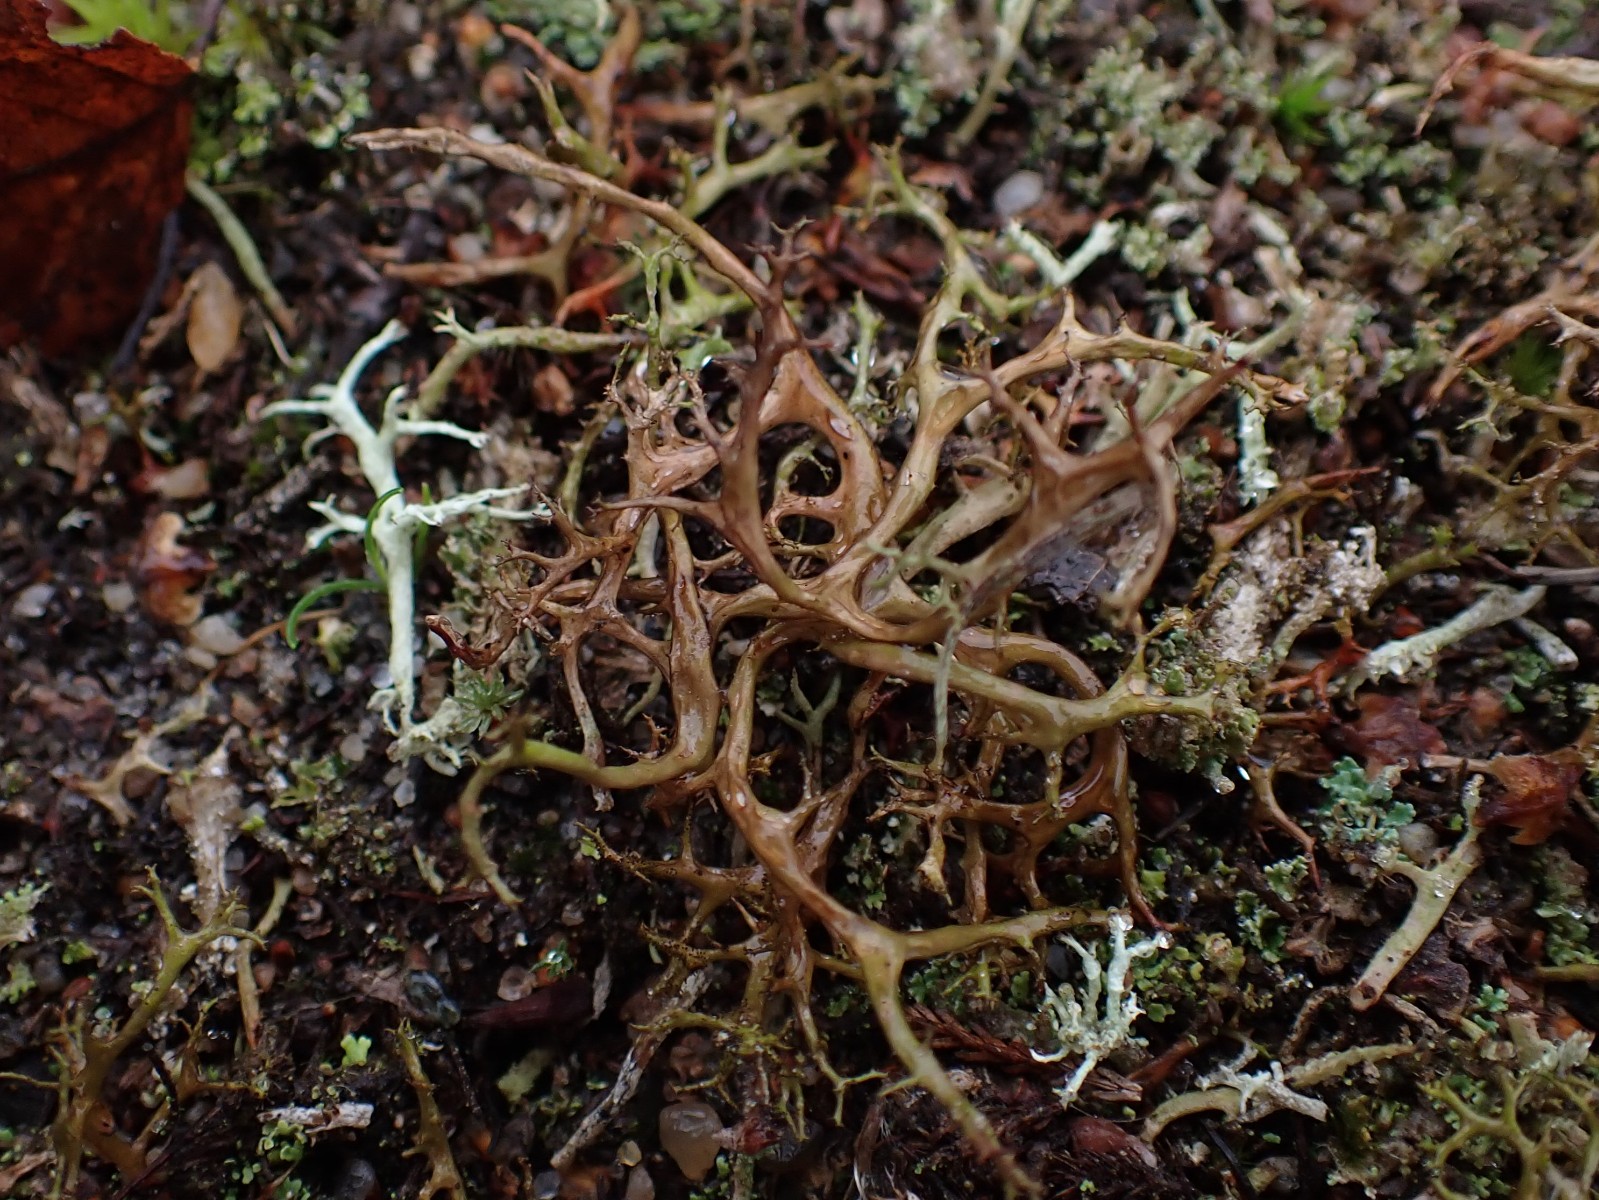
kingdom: Fungi
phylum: Ascomycota
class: Lecanoromycetes
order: Lecanorales
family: Parmeliaceae
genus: Cetraria
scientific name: Cetraria aculeata
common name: grubet tjørnelav
